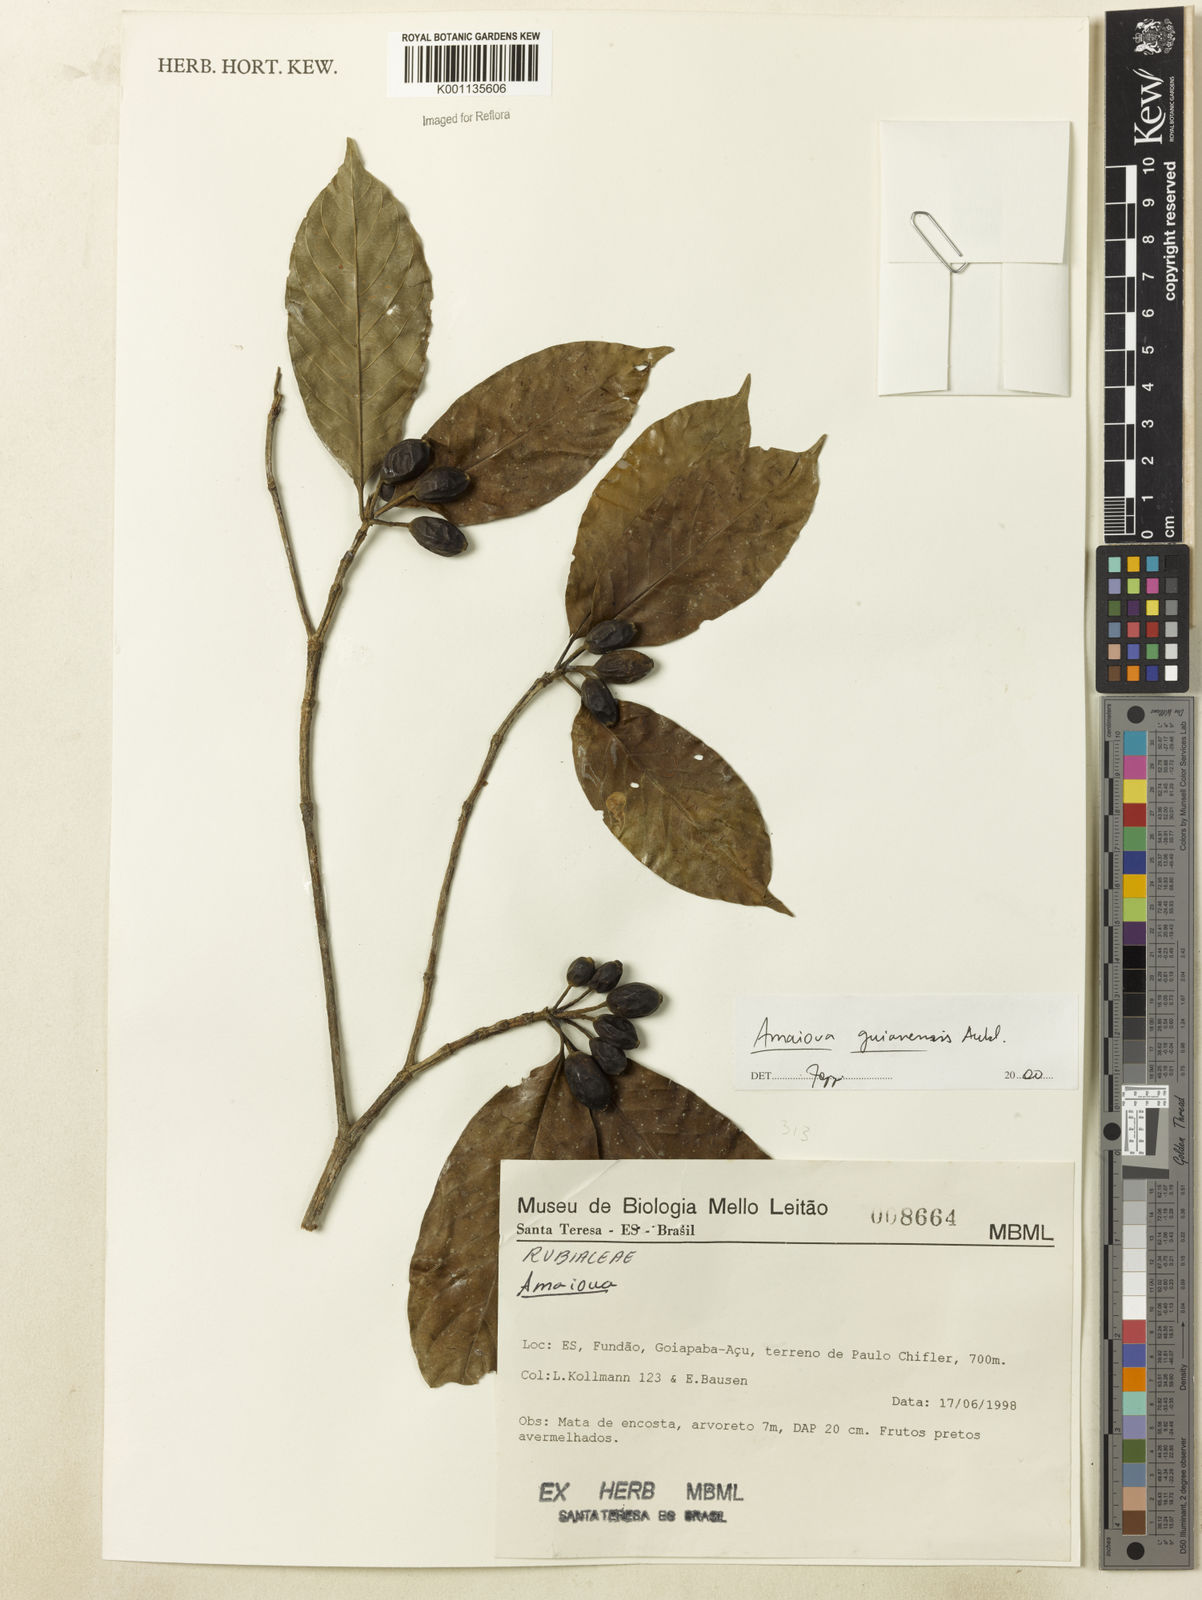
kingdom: Plantae
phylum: Tracheophyta
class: Magnoliopsida
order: Gentianales
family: Rubiaceae
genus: Amaioua
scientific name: Amaioua intermedia
